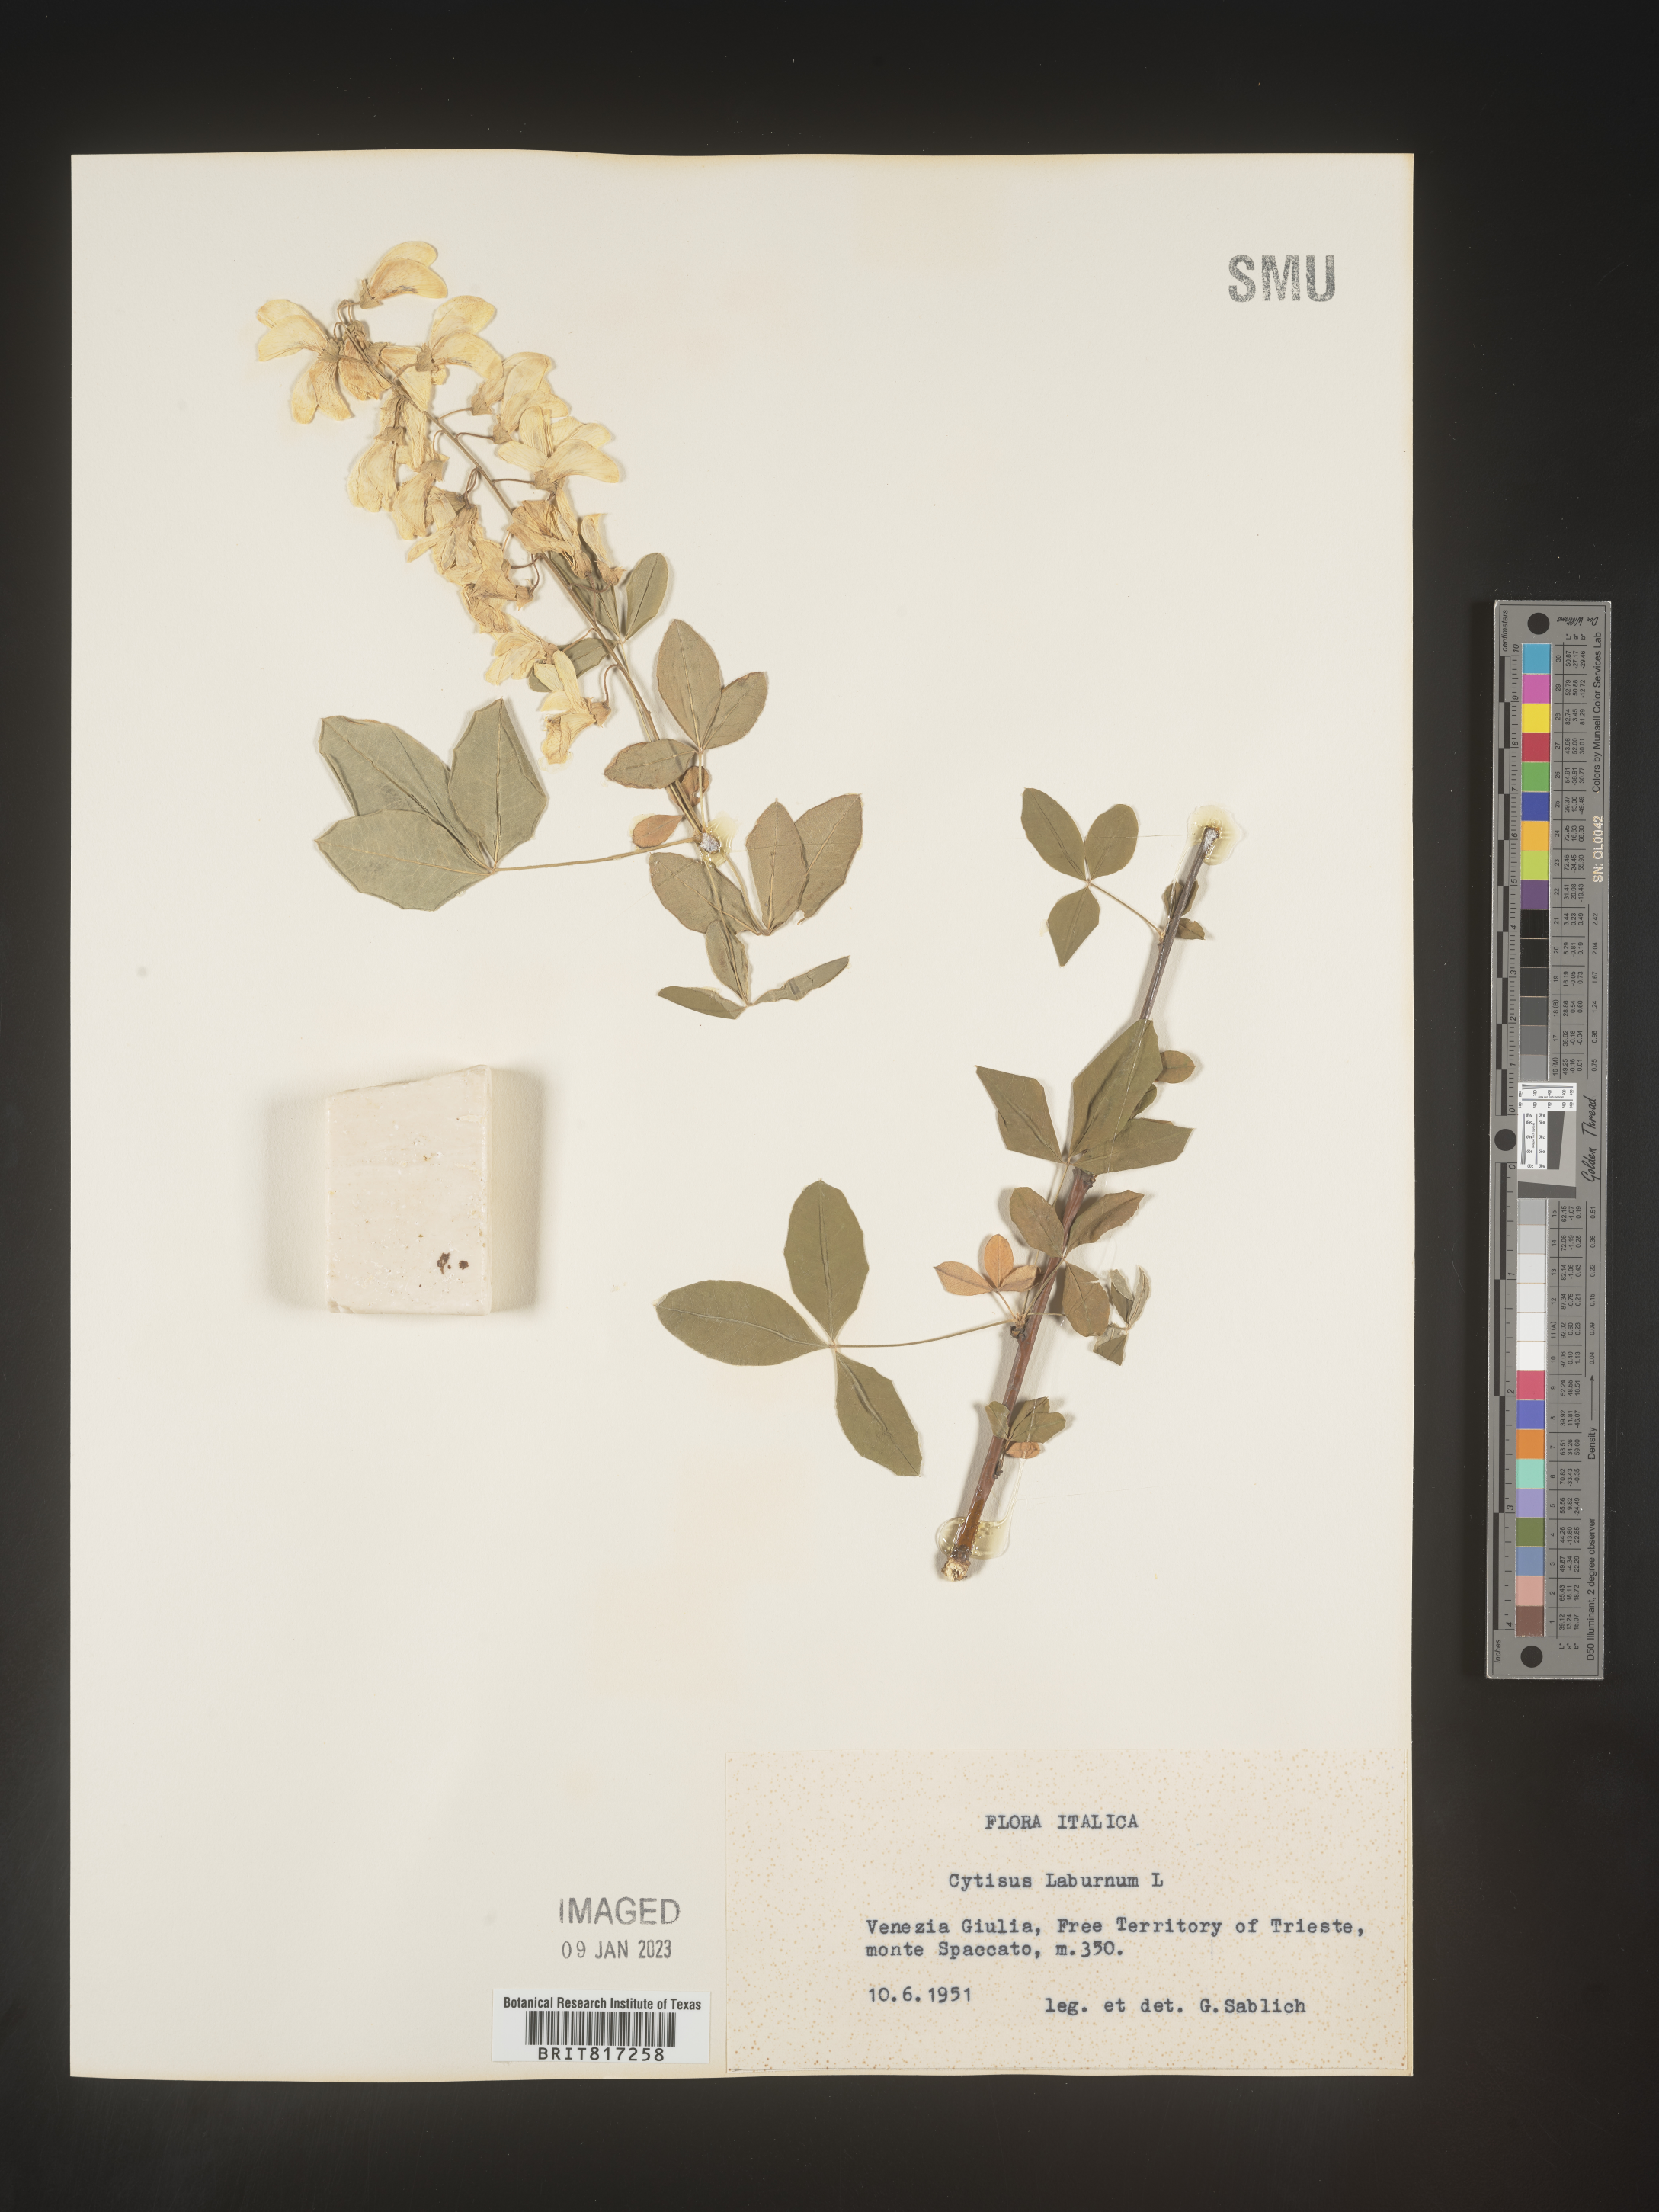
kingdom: Plantae
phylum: Tracheophyta
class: Magnoliopsida
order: Fabales
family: Fabaceae
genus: Cytisus
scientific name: Cytisus
